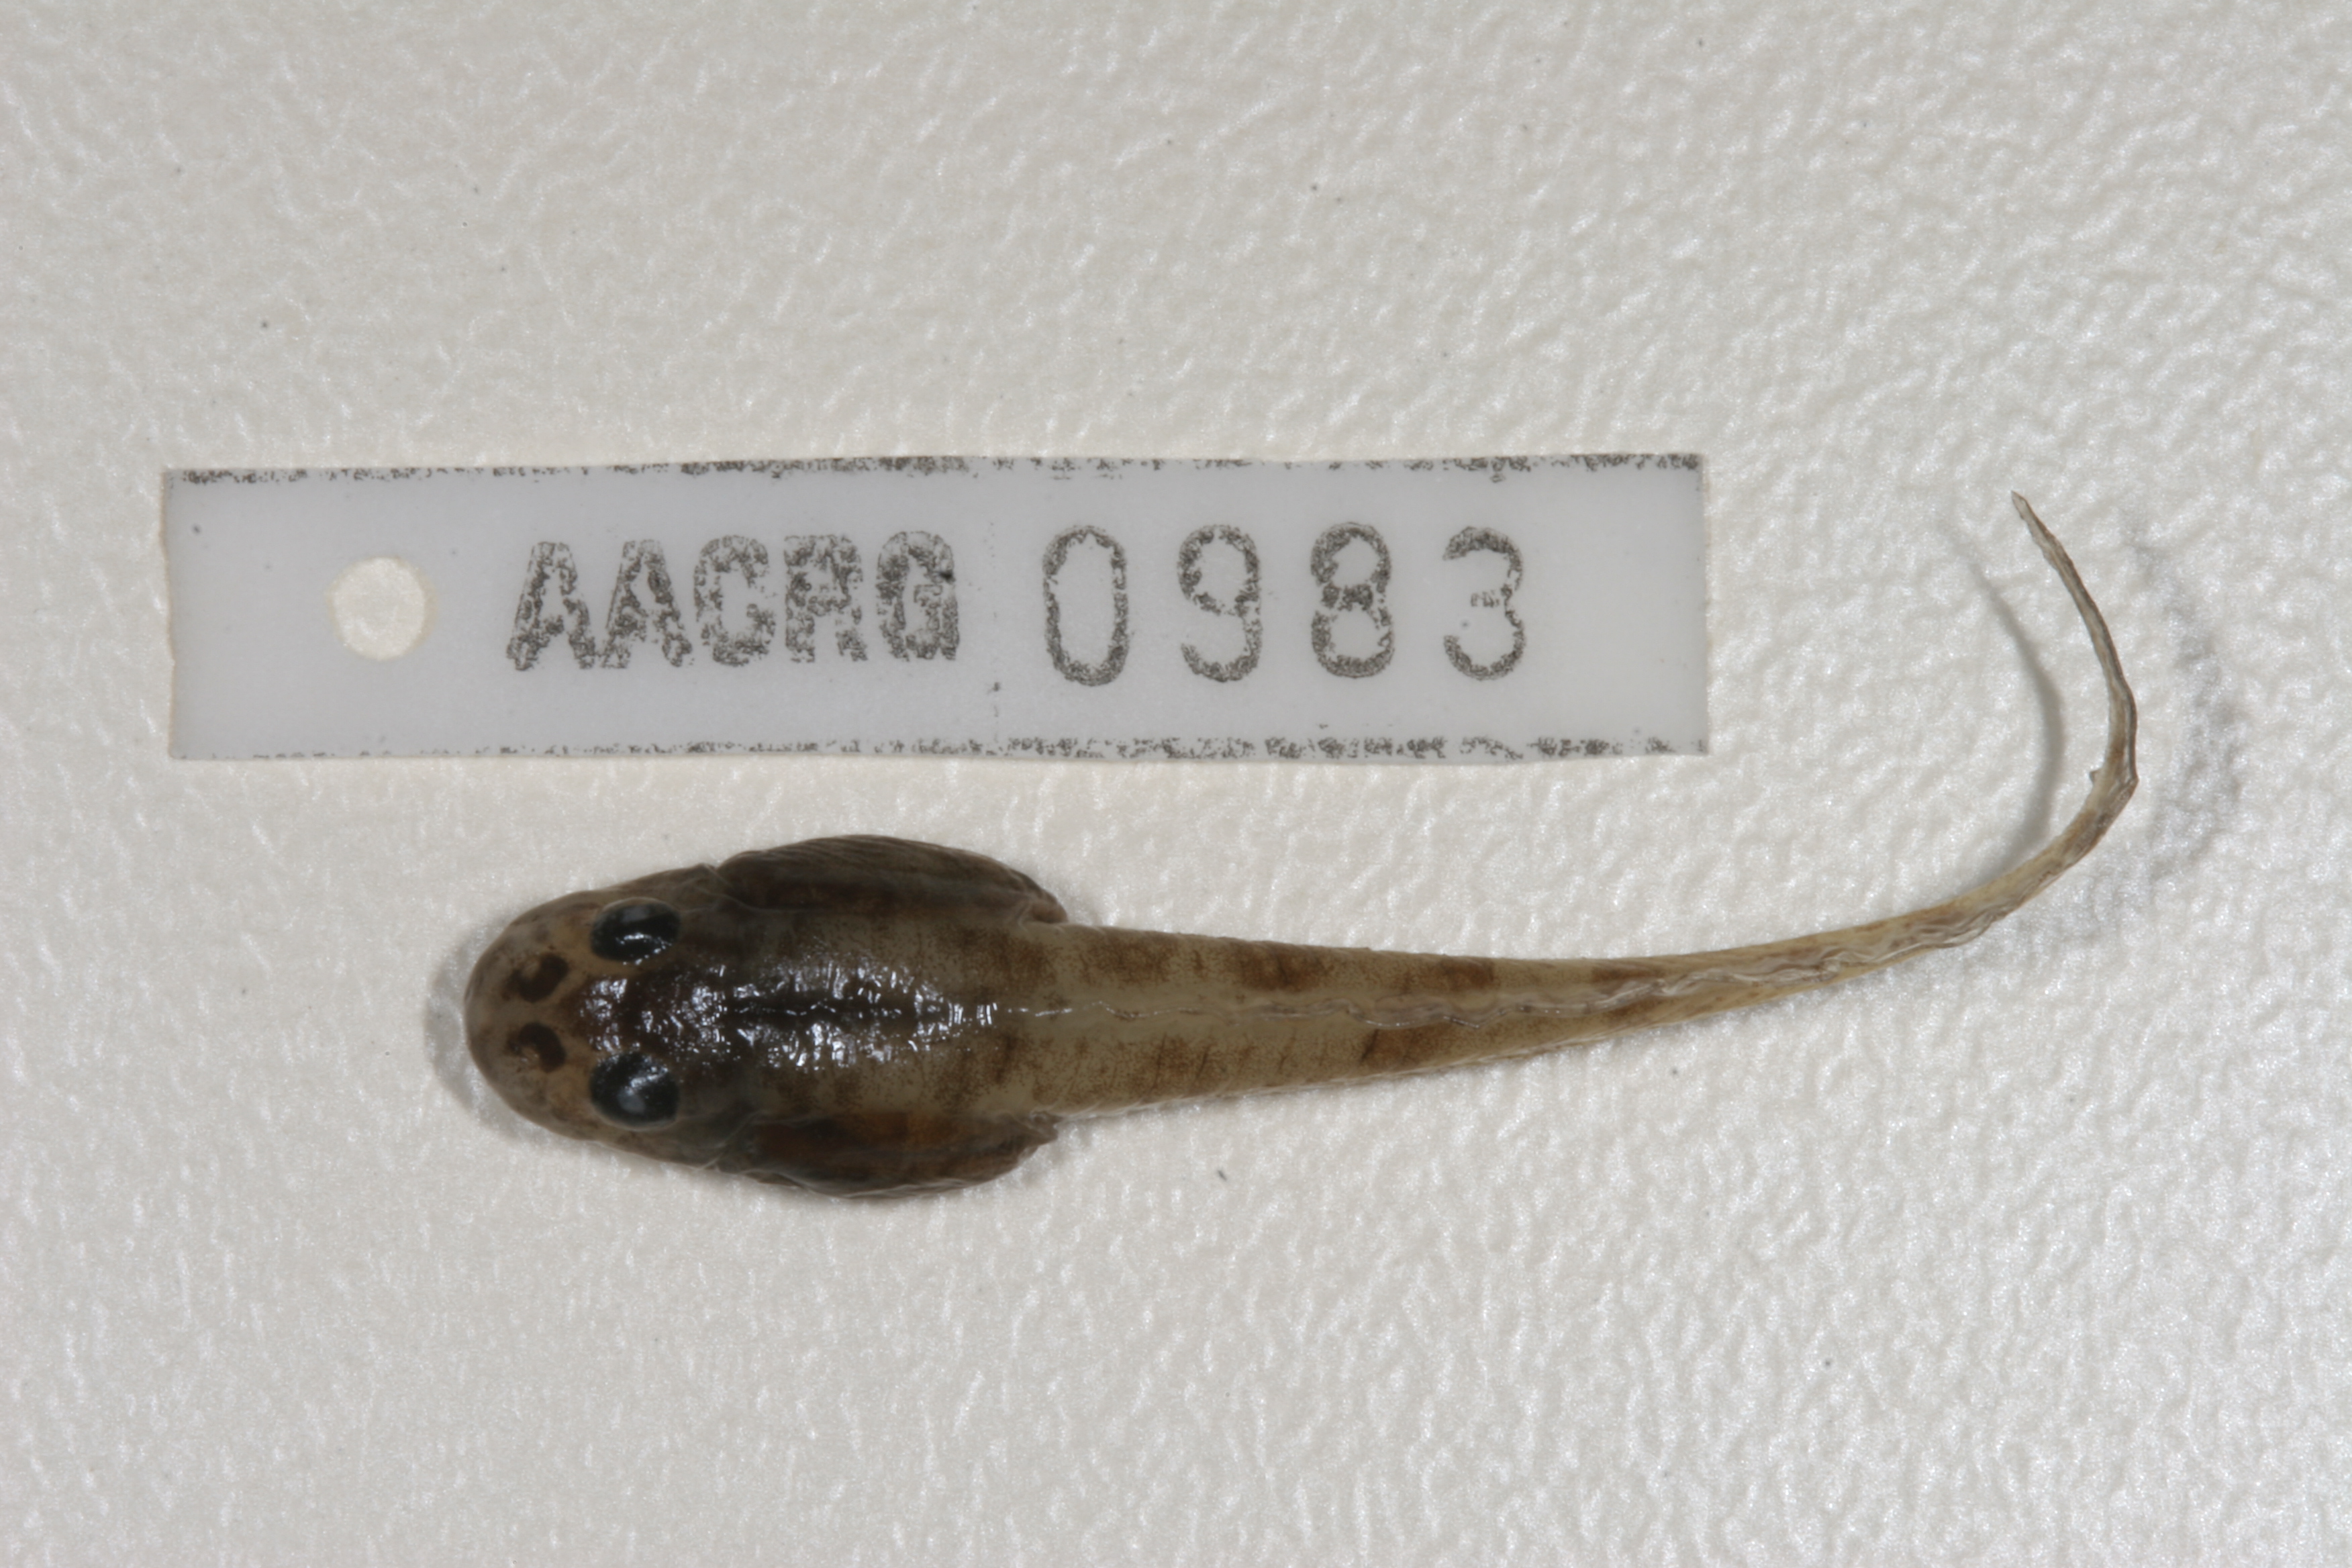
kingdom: Animalia
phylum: Chordata
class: Amphibia
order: Anura
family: Pyxicephalidae
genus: Amietia
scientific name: Amietia angolensis
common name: Dusky-throated frog
